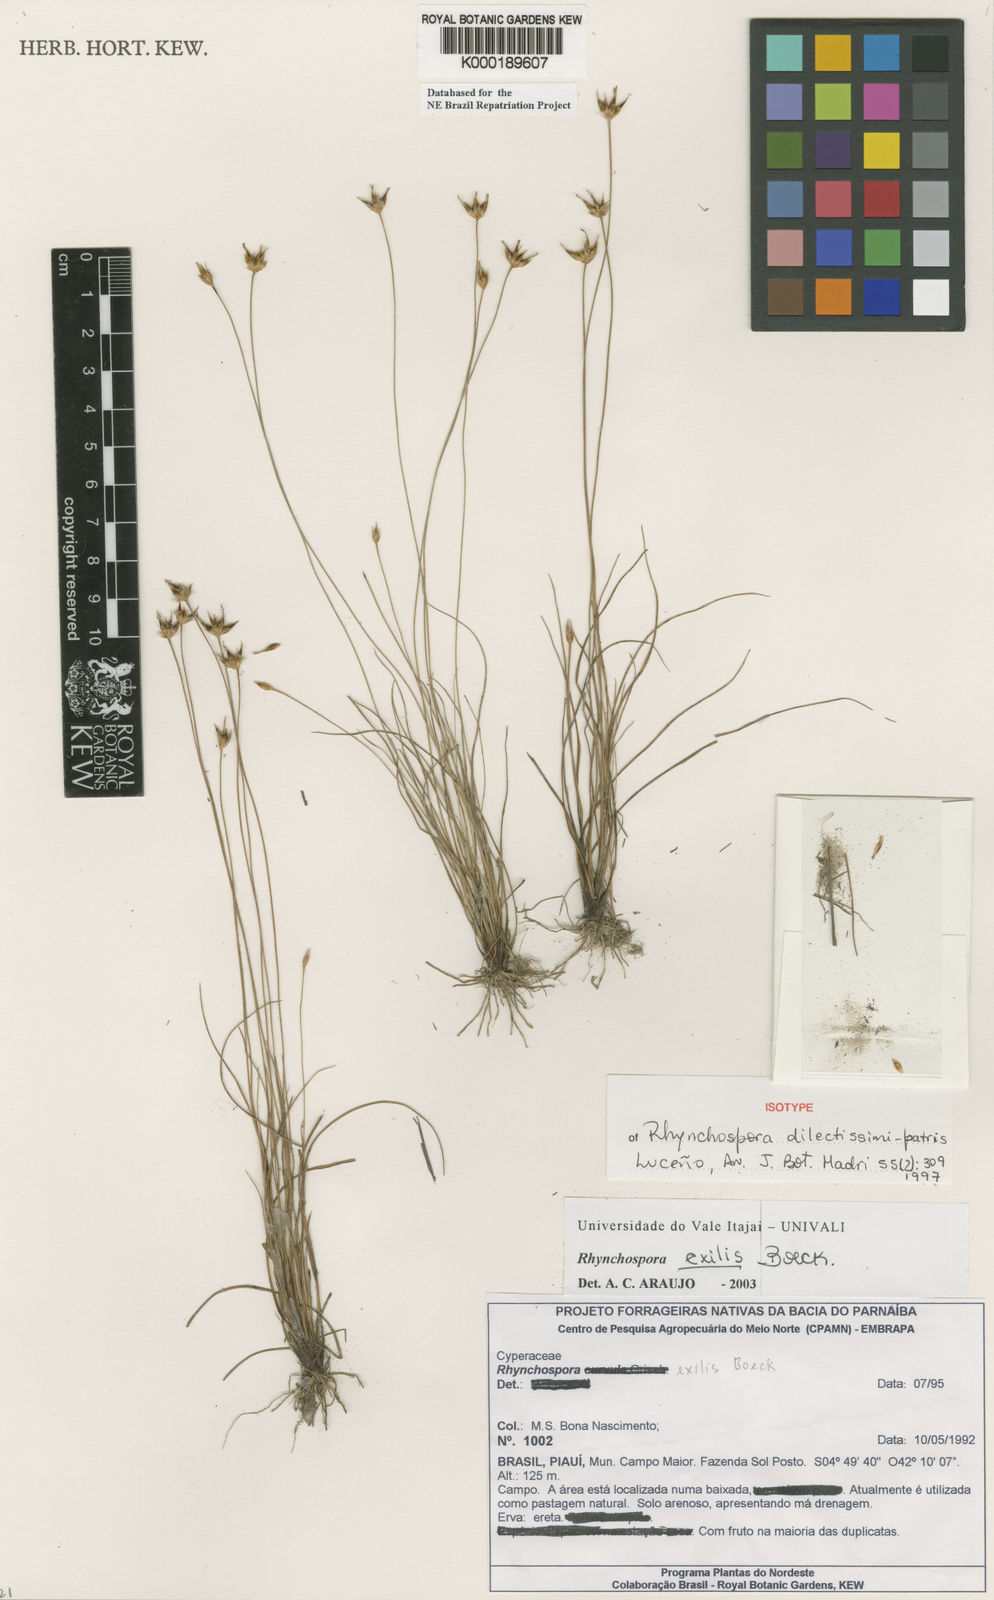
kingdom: Plantae
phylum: Tracheophyta
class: Liliopsida
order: Poales
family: Cyperaceae
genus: Rhynchospora
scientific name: Rhynchospora exilis
